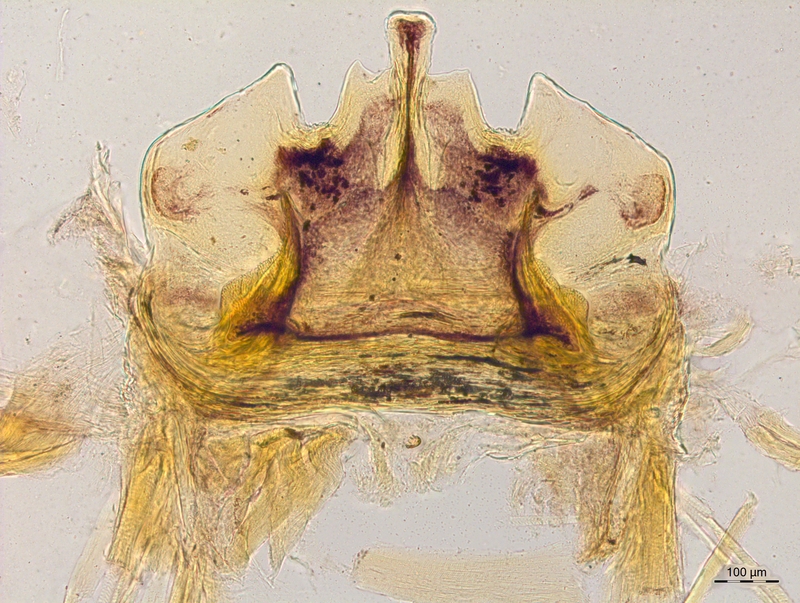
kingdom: Animalia
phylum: Arthropoda
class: Diplopoda
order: Chordeumatida
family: Craspedosomatidae
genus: Craspedosoma
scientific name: Craspedosoma taurinorum
